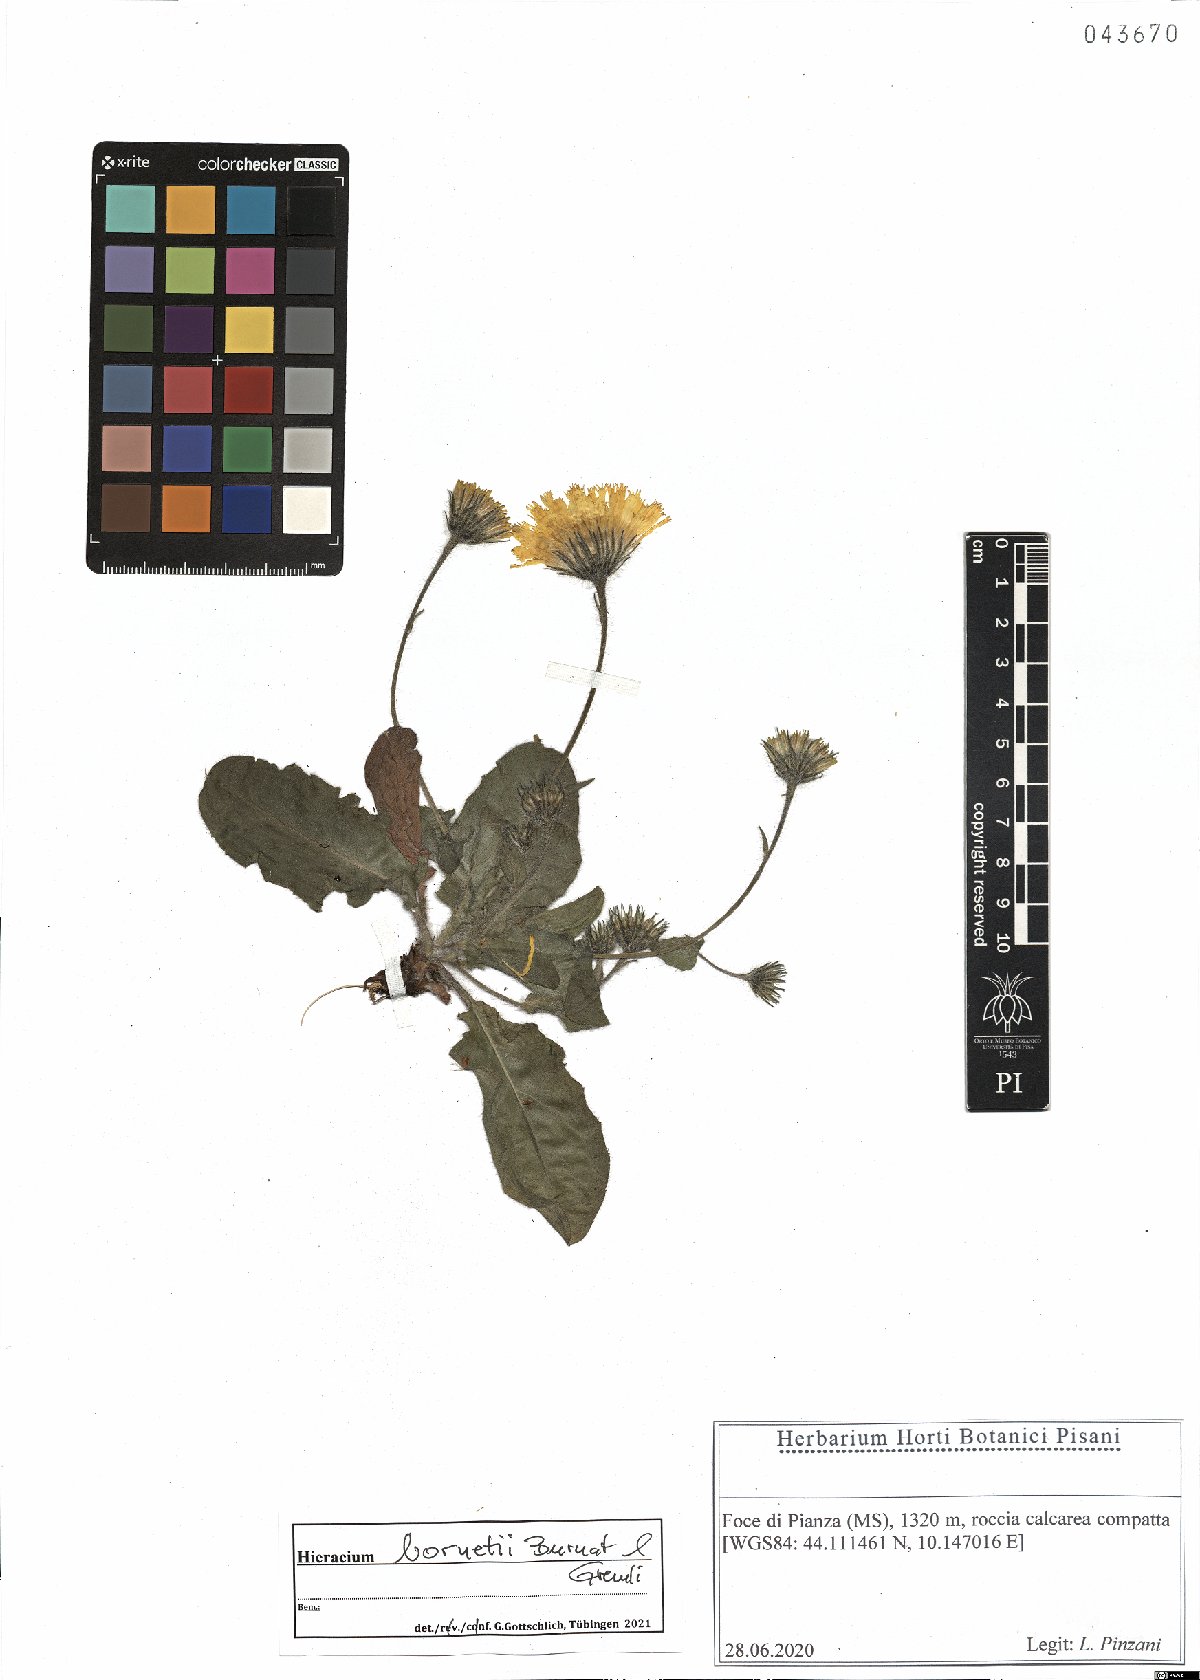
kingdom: Plantae
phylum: Tracheophyta
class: Magnoliopsida
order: Asterales
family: Asteraceae
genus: Hieracium
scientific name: Hieracium bornetii
